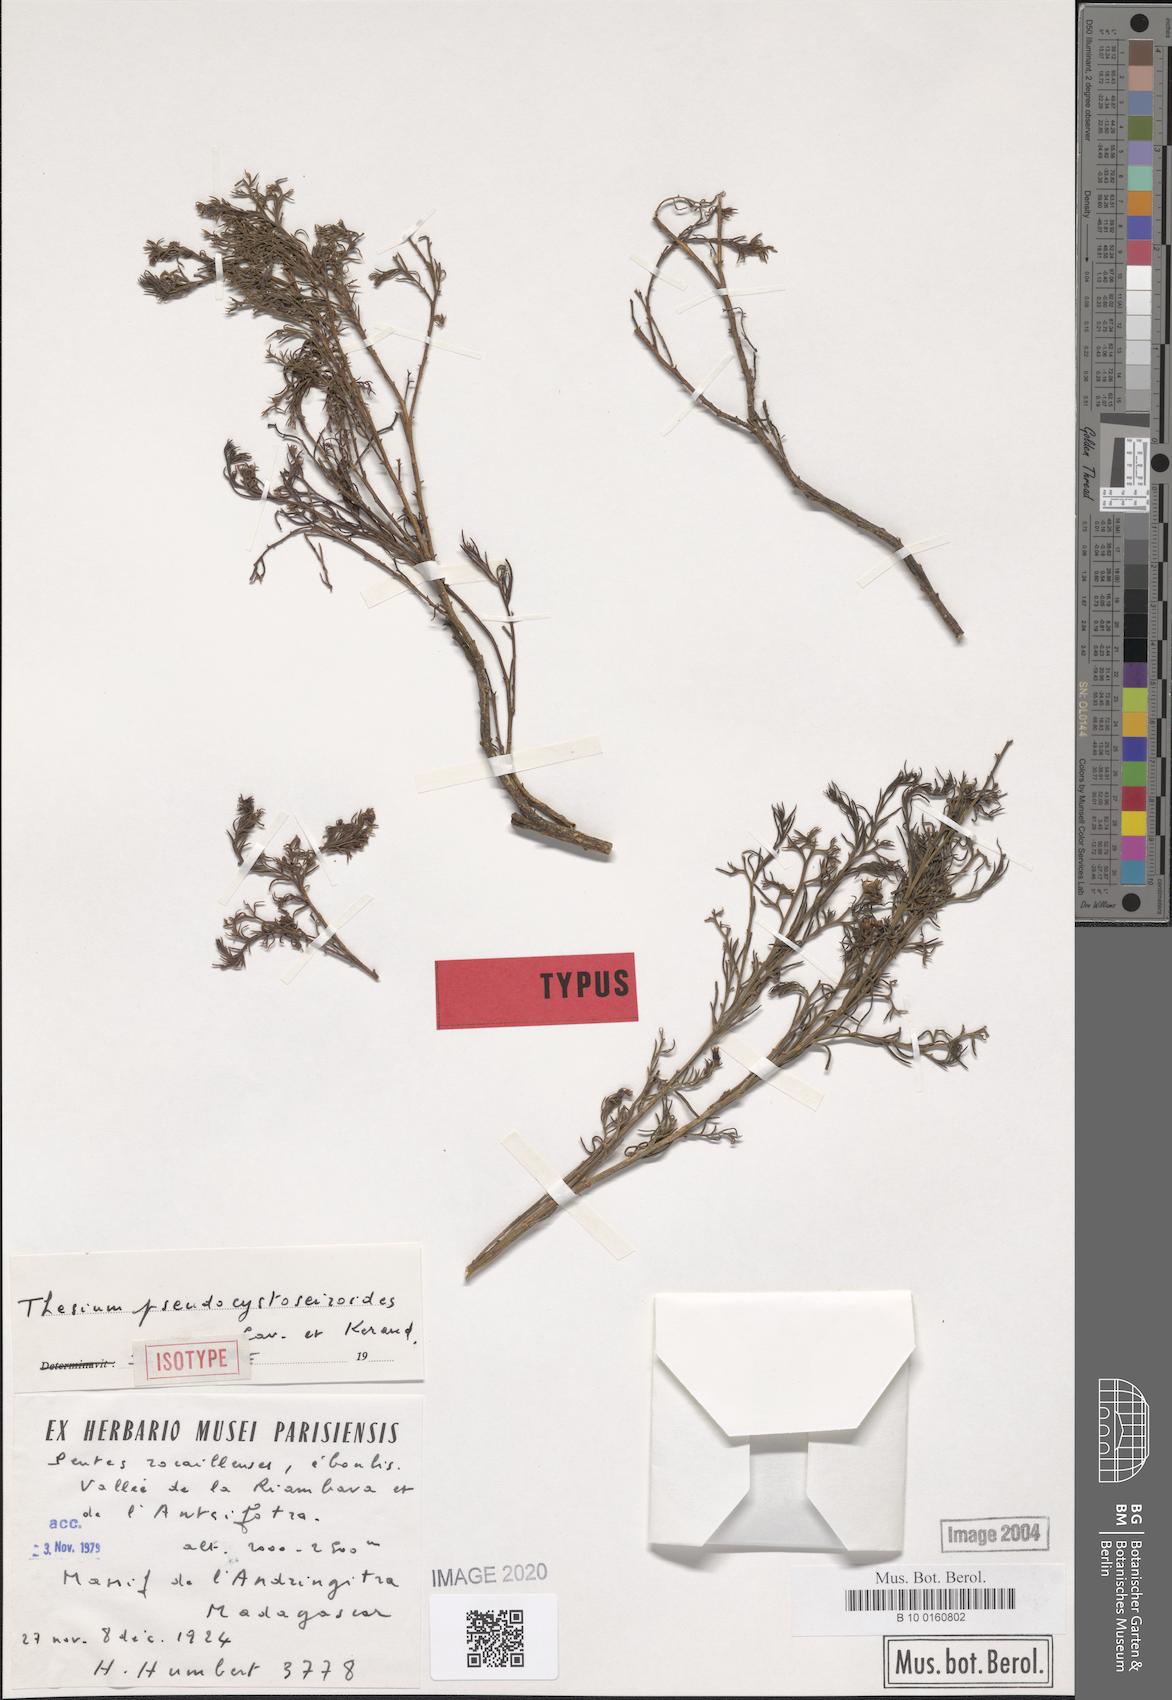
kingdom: Plantae
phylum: Tracheophyta
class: Magnoliopsida
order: Santalales
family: Thesiaceae
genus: Thesium
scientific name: Thesium pseudocystoseiroides
